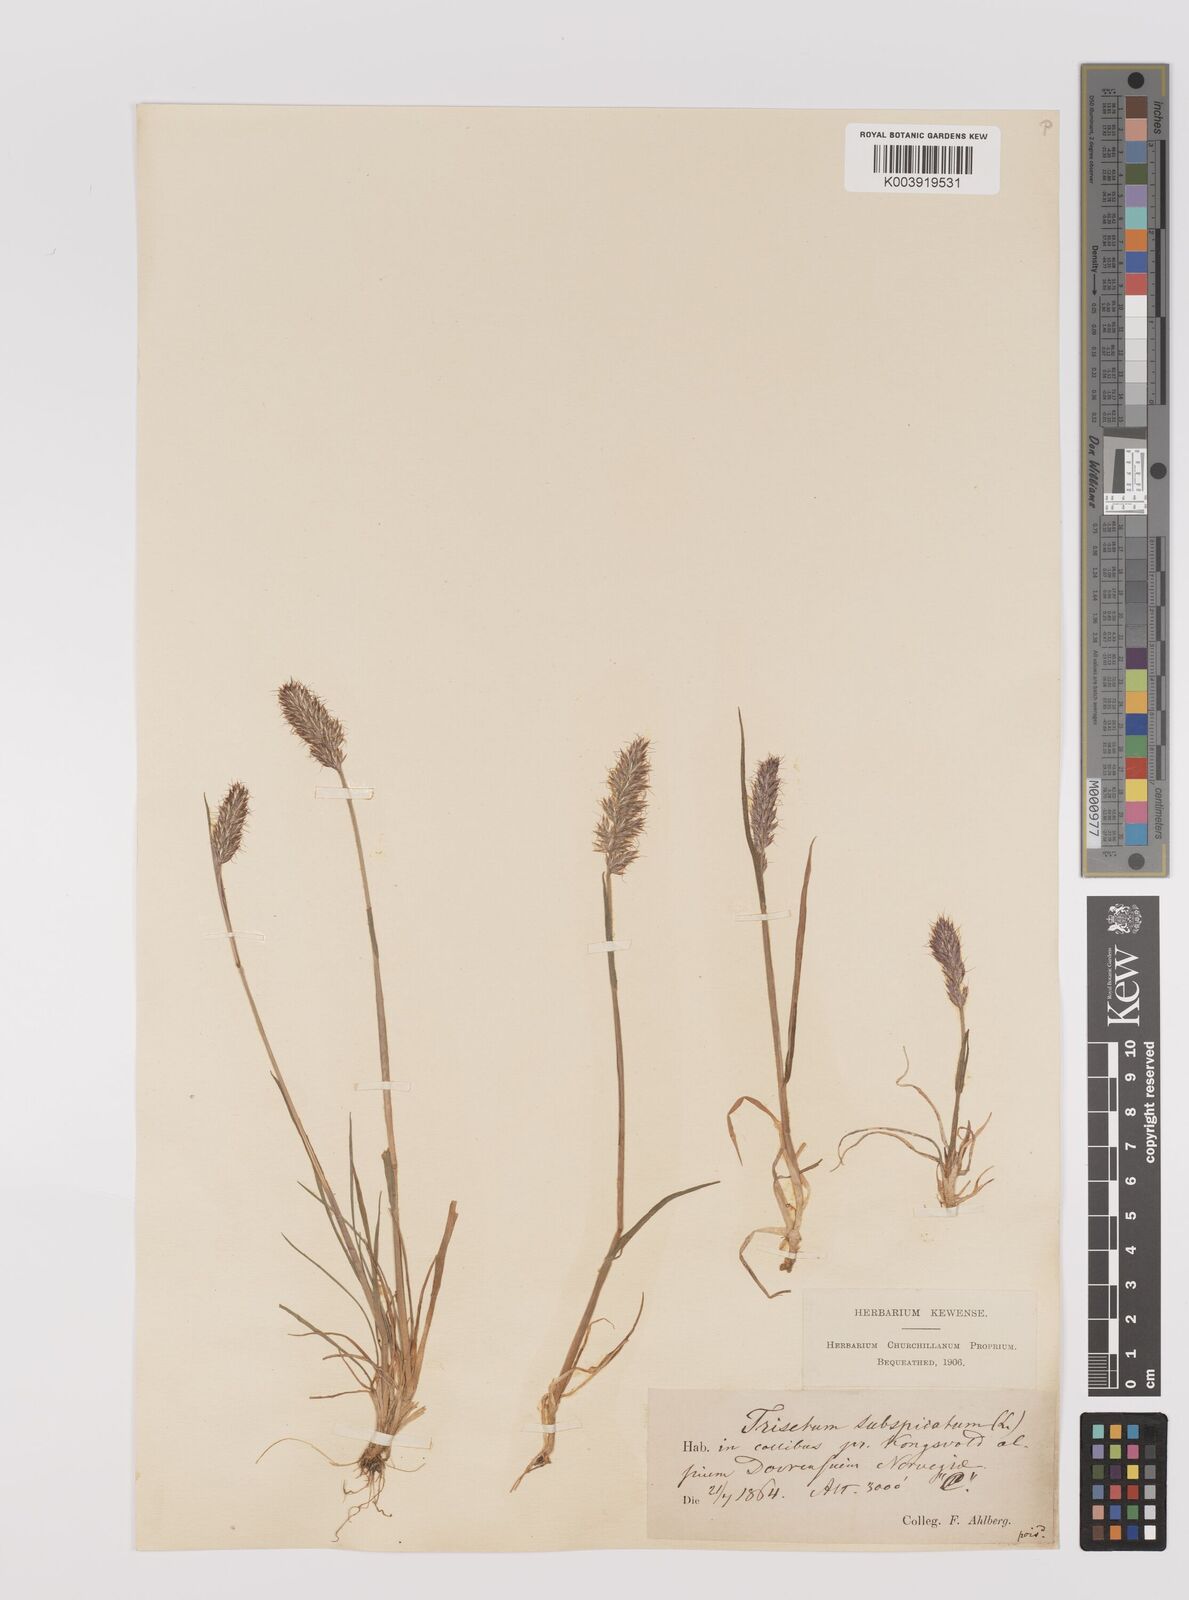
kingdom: Plantae
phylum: Tracheophyta
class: Liliopsida
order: Poales
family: Poaceae
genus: Koeleria
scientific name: Koeleria spicata
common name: Mountain trisetum
